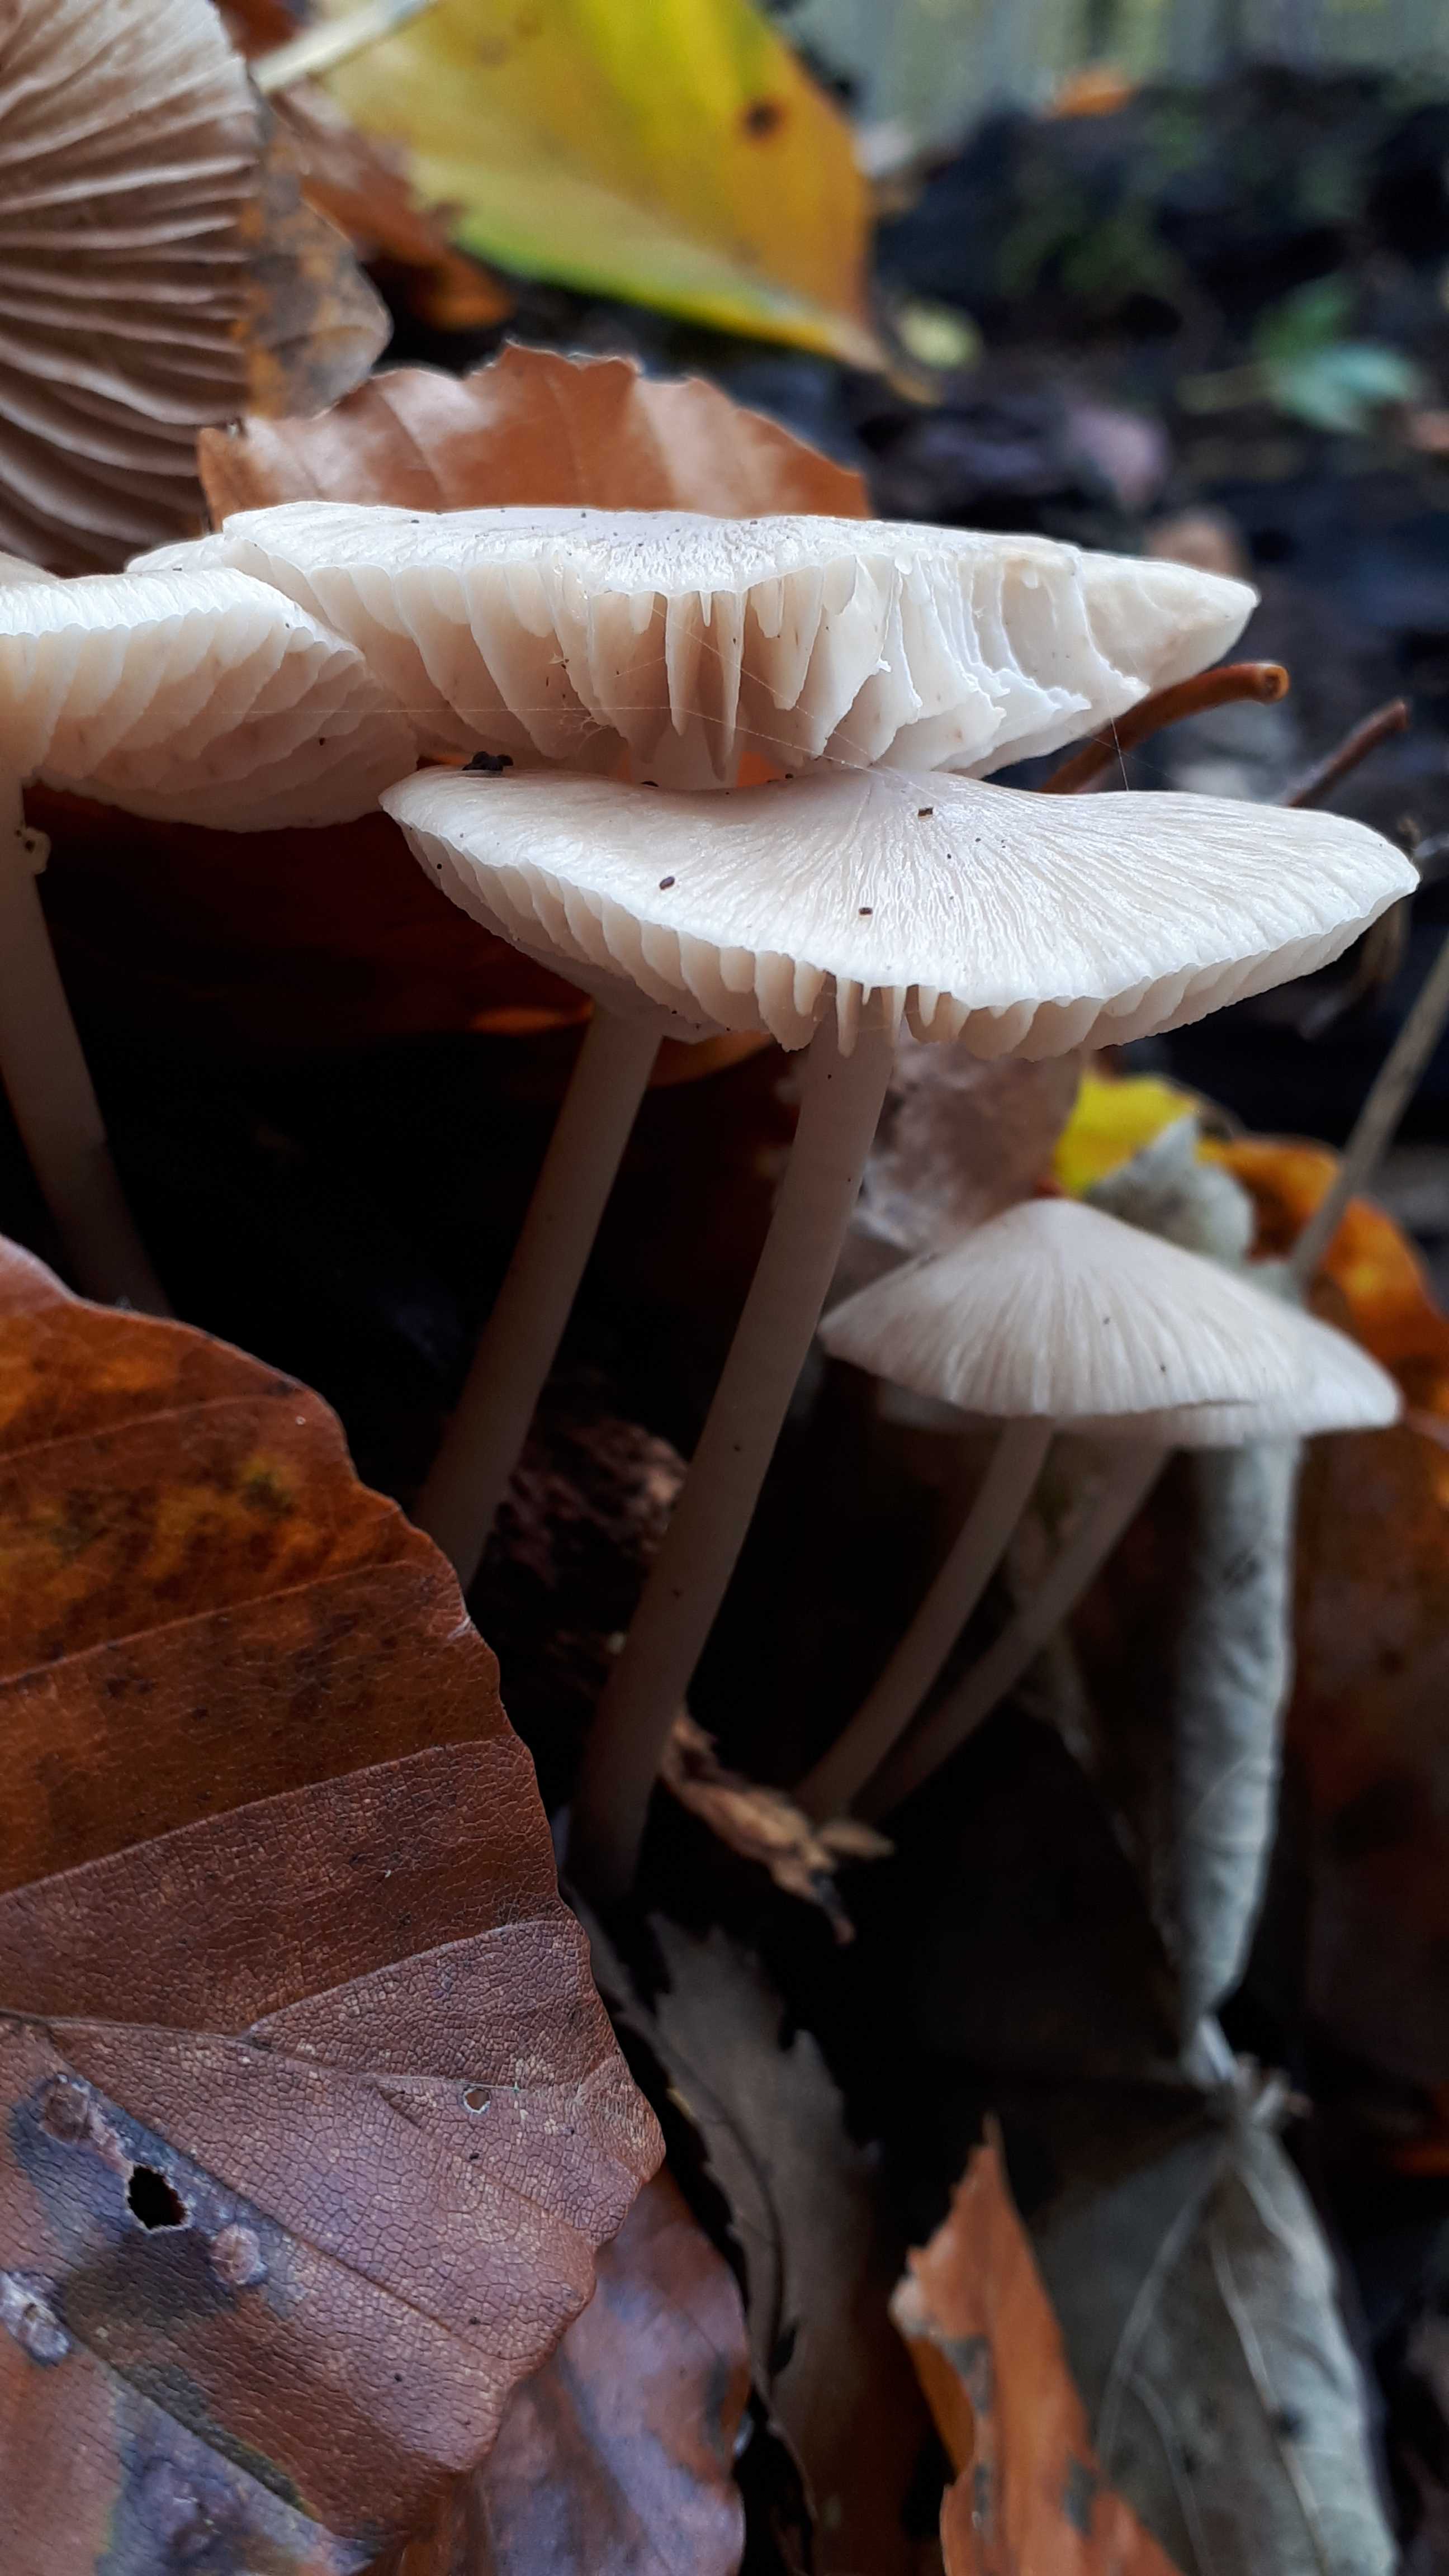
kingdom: Fungi
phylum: Basidiomycota
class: Agaricomycetes
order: Agaricales
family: Mycenaceae
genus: Mycena
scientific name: Mycena galericulata
